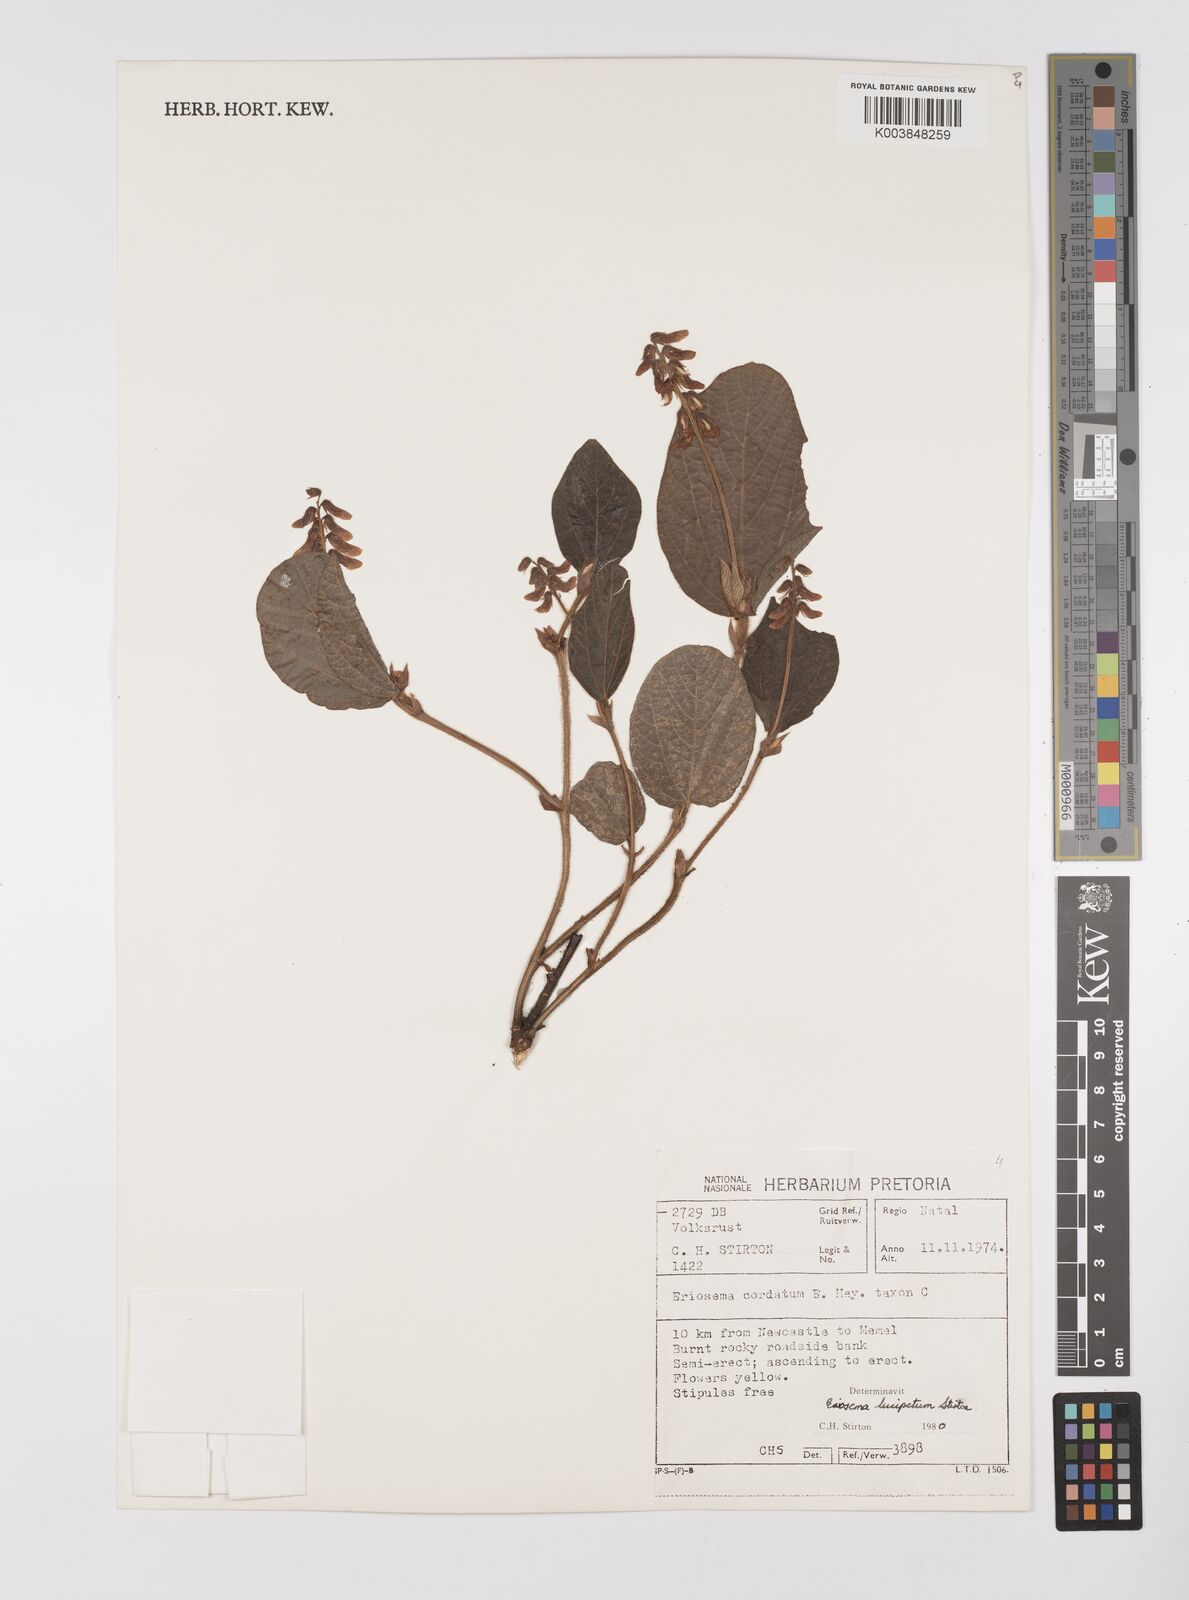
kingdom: Plantae
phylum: Tracheophyta
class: Magnoliopsida
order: Fabales
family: Fabaceae
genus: Eriosema
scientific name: Eriosema lucipetum
